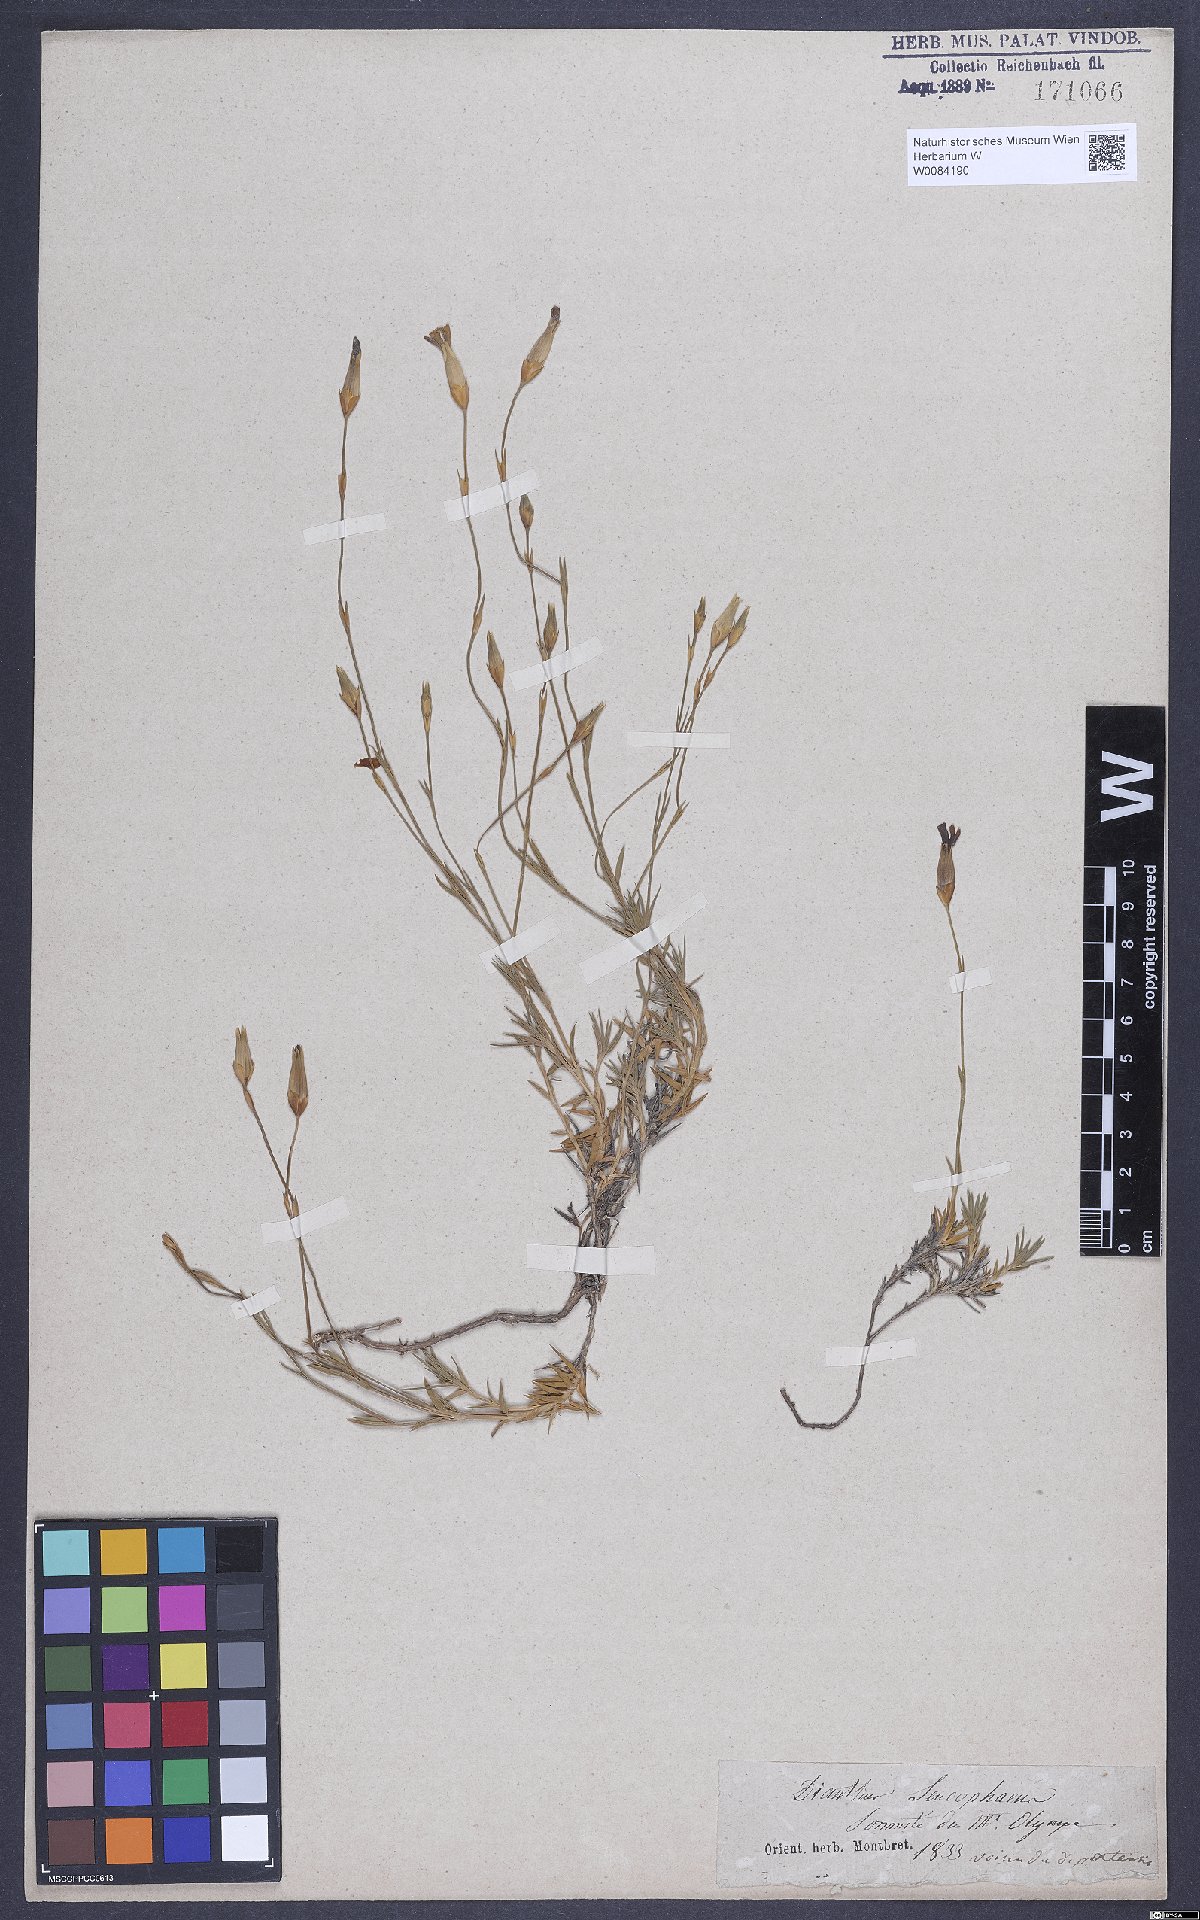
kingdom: Plantae
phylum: Tracheophyta
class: Magnoliopsida
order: Caryophyllales
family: Caryophyllaceae
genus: Dianthus
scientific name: Dianthus leucophaeus
